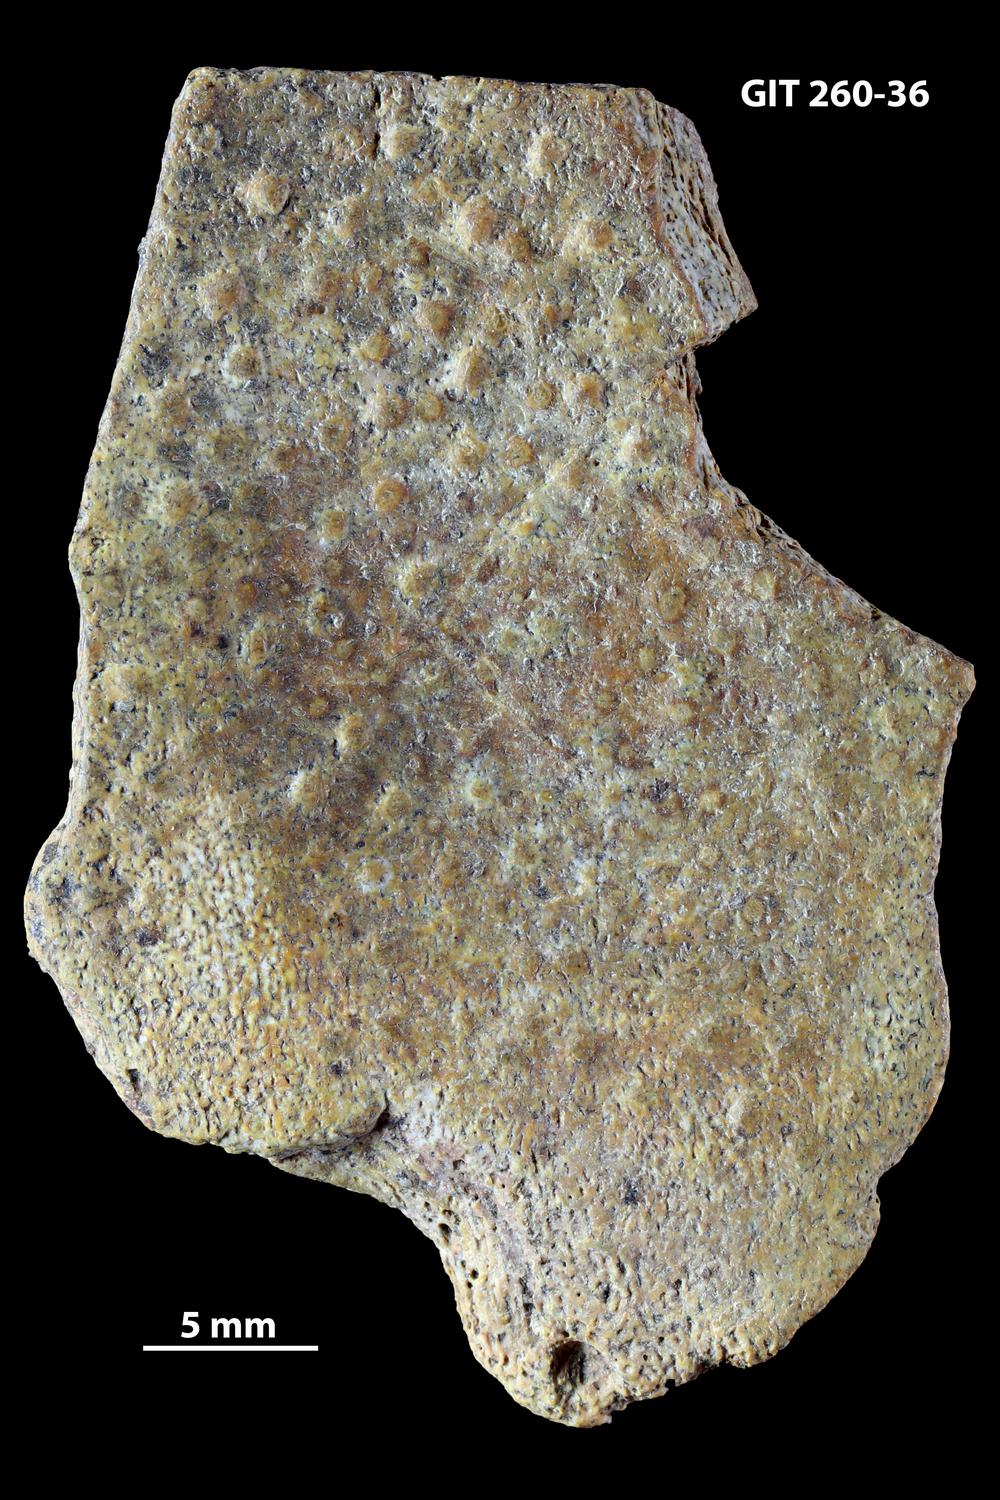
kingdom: Animalia
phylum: Chordata
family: Homostiidae
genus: Homostius
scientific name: Homostius
